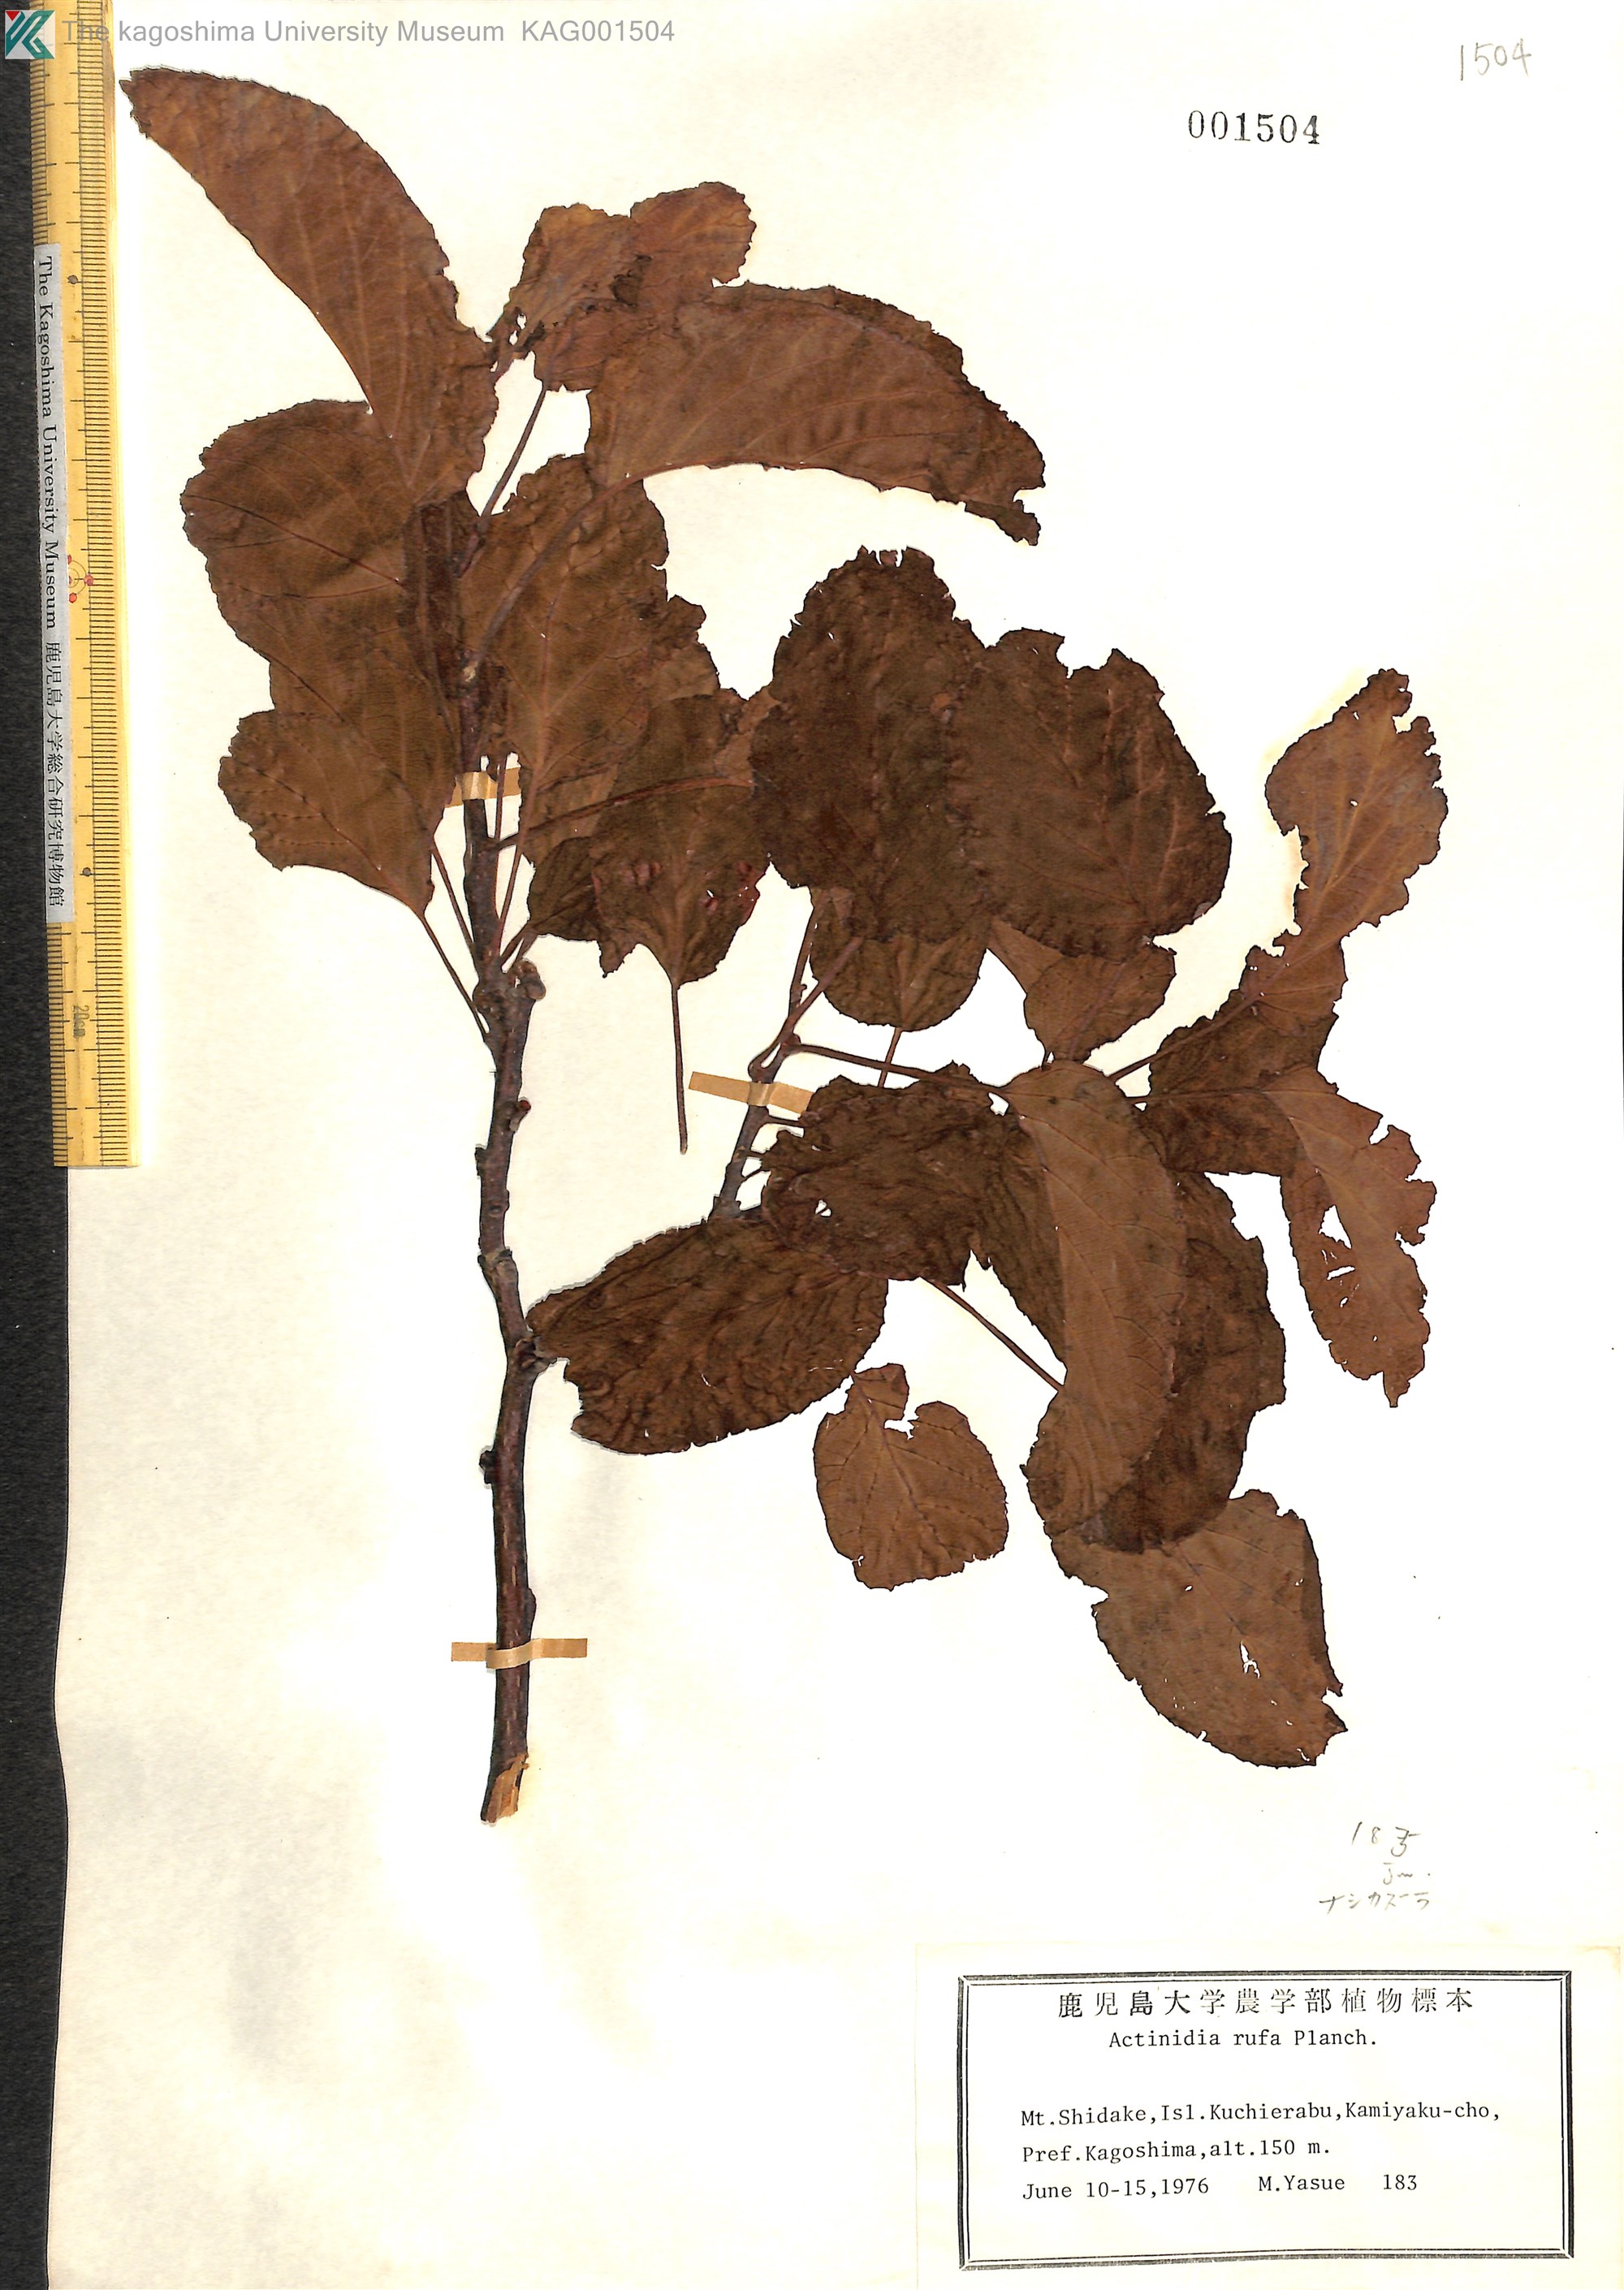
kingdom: Plantae
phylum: Tracheophyta
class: Magnoliopsida
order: Ericales
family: Actinidiaceae
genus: Actinidia
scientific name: Actinidia rufa
